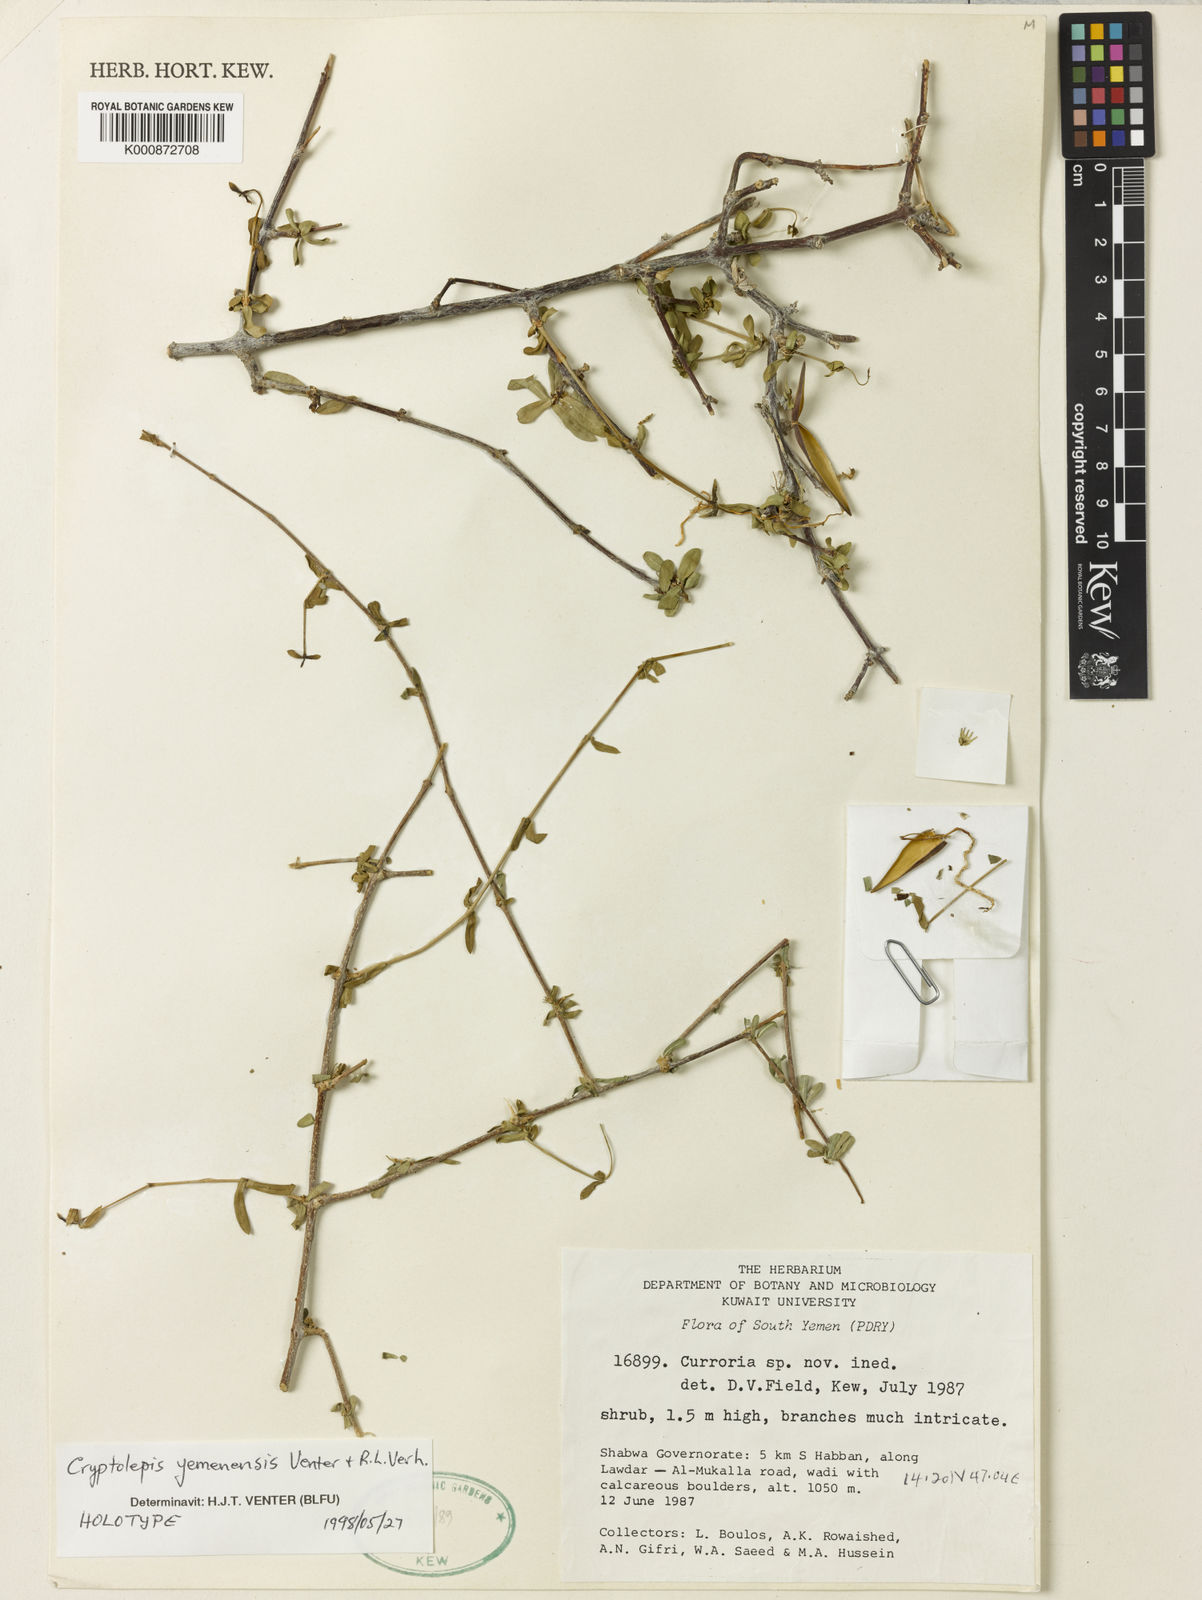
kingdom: Plantae
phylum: Tracheophyta
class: Magnoliopsida
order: Gentianales
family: Apocynaceae
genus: Cryptolepis
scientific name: Cryptolepis yemenensis
